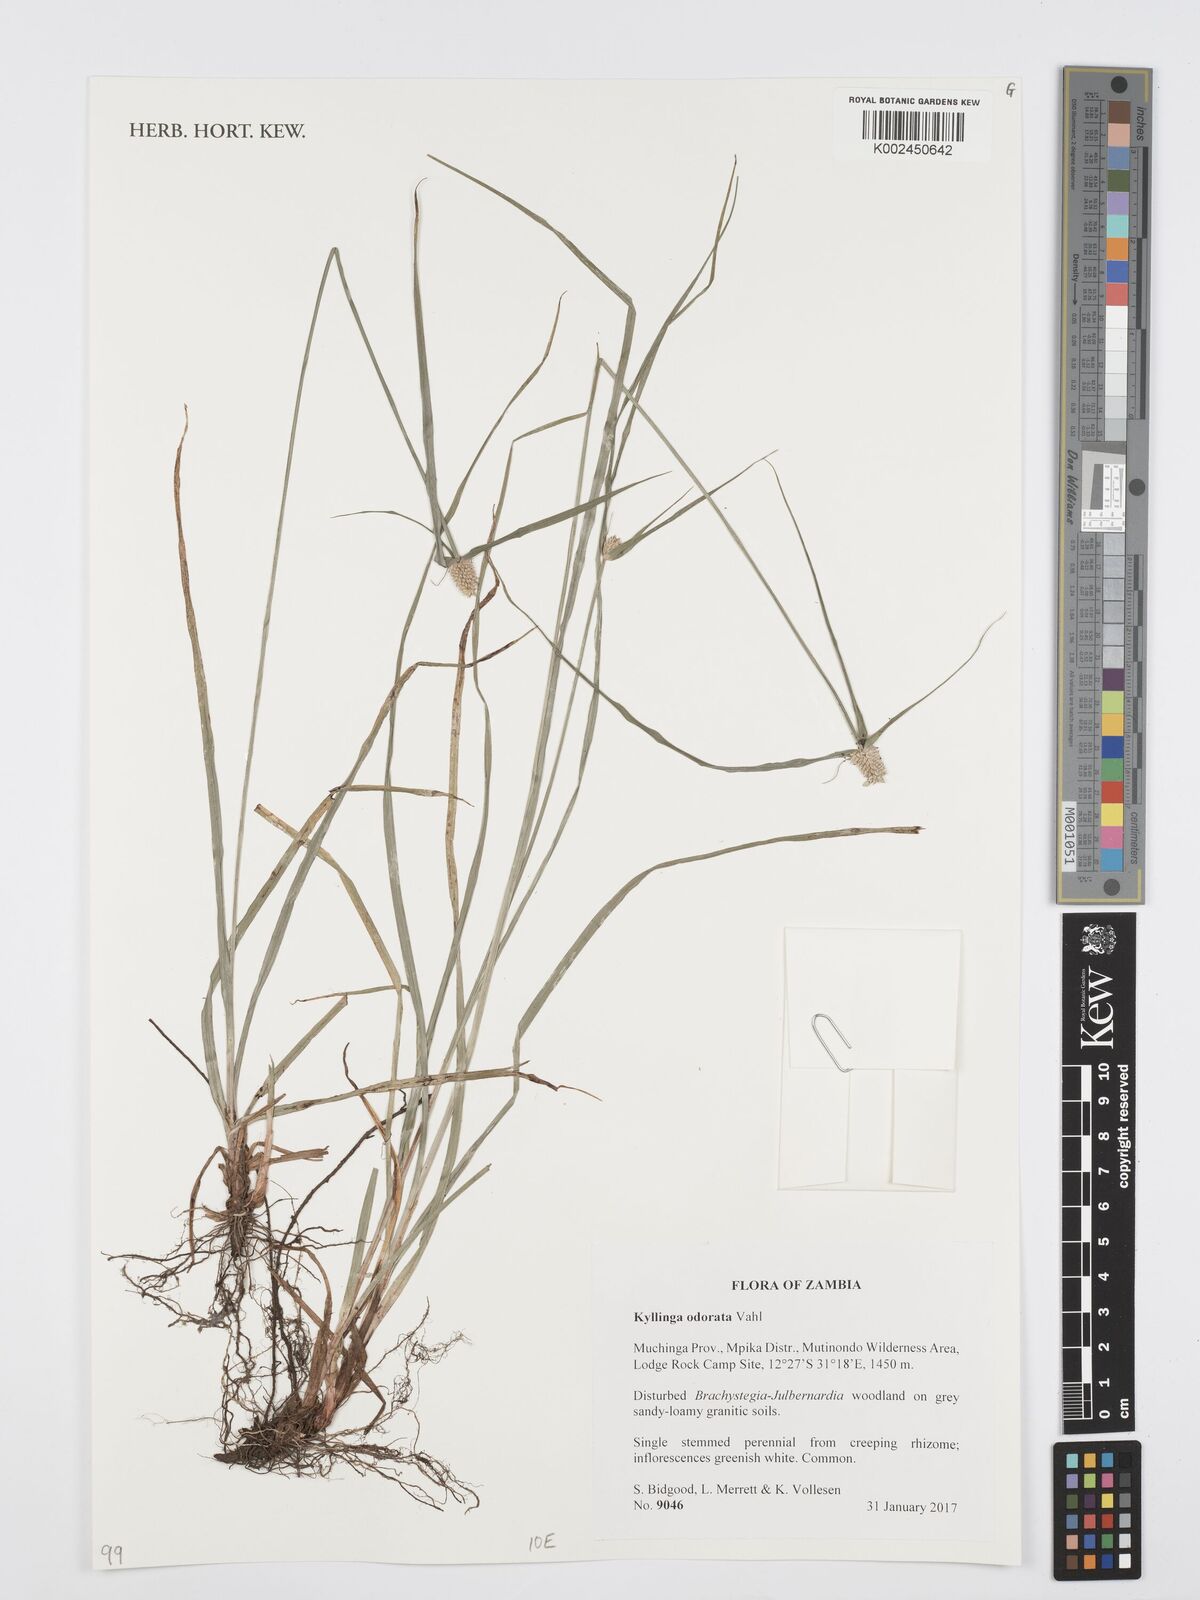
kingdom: Plantae
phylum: Tracheophyta
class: Liliopsida
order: Poales
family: Cyperaceae
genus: Cyperus
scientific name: Cyperus
